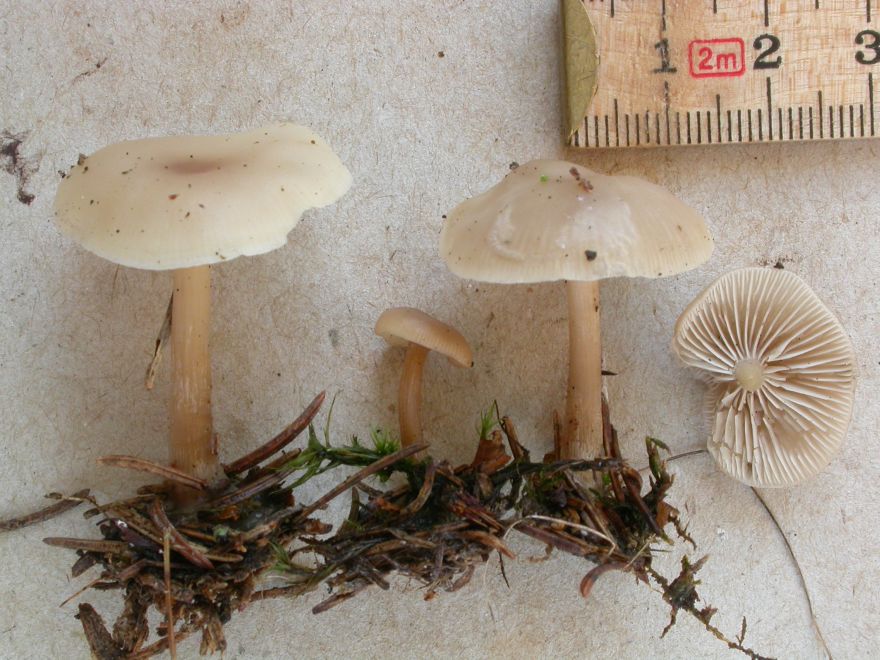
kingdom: Fungi
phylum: Basidiomycota
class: Agaricomycetes
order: Agaricales
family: Tricholomataceae
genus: Clitocybe
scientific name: Clitocybe metachroa
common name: grå tragthat
